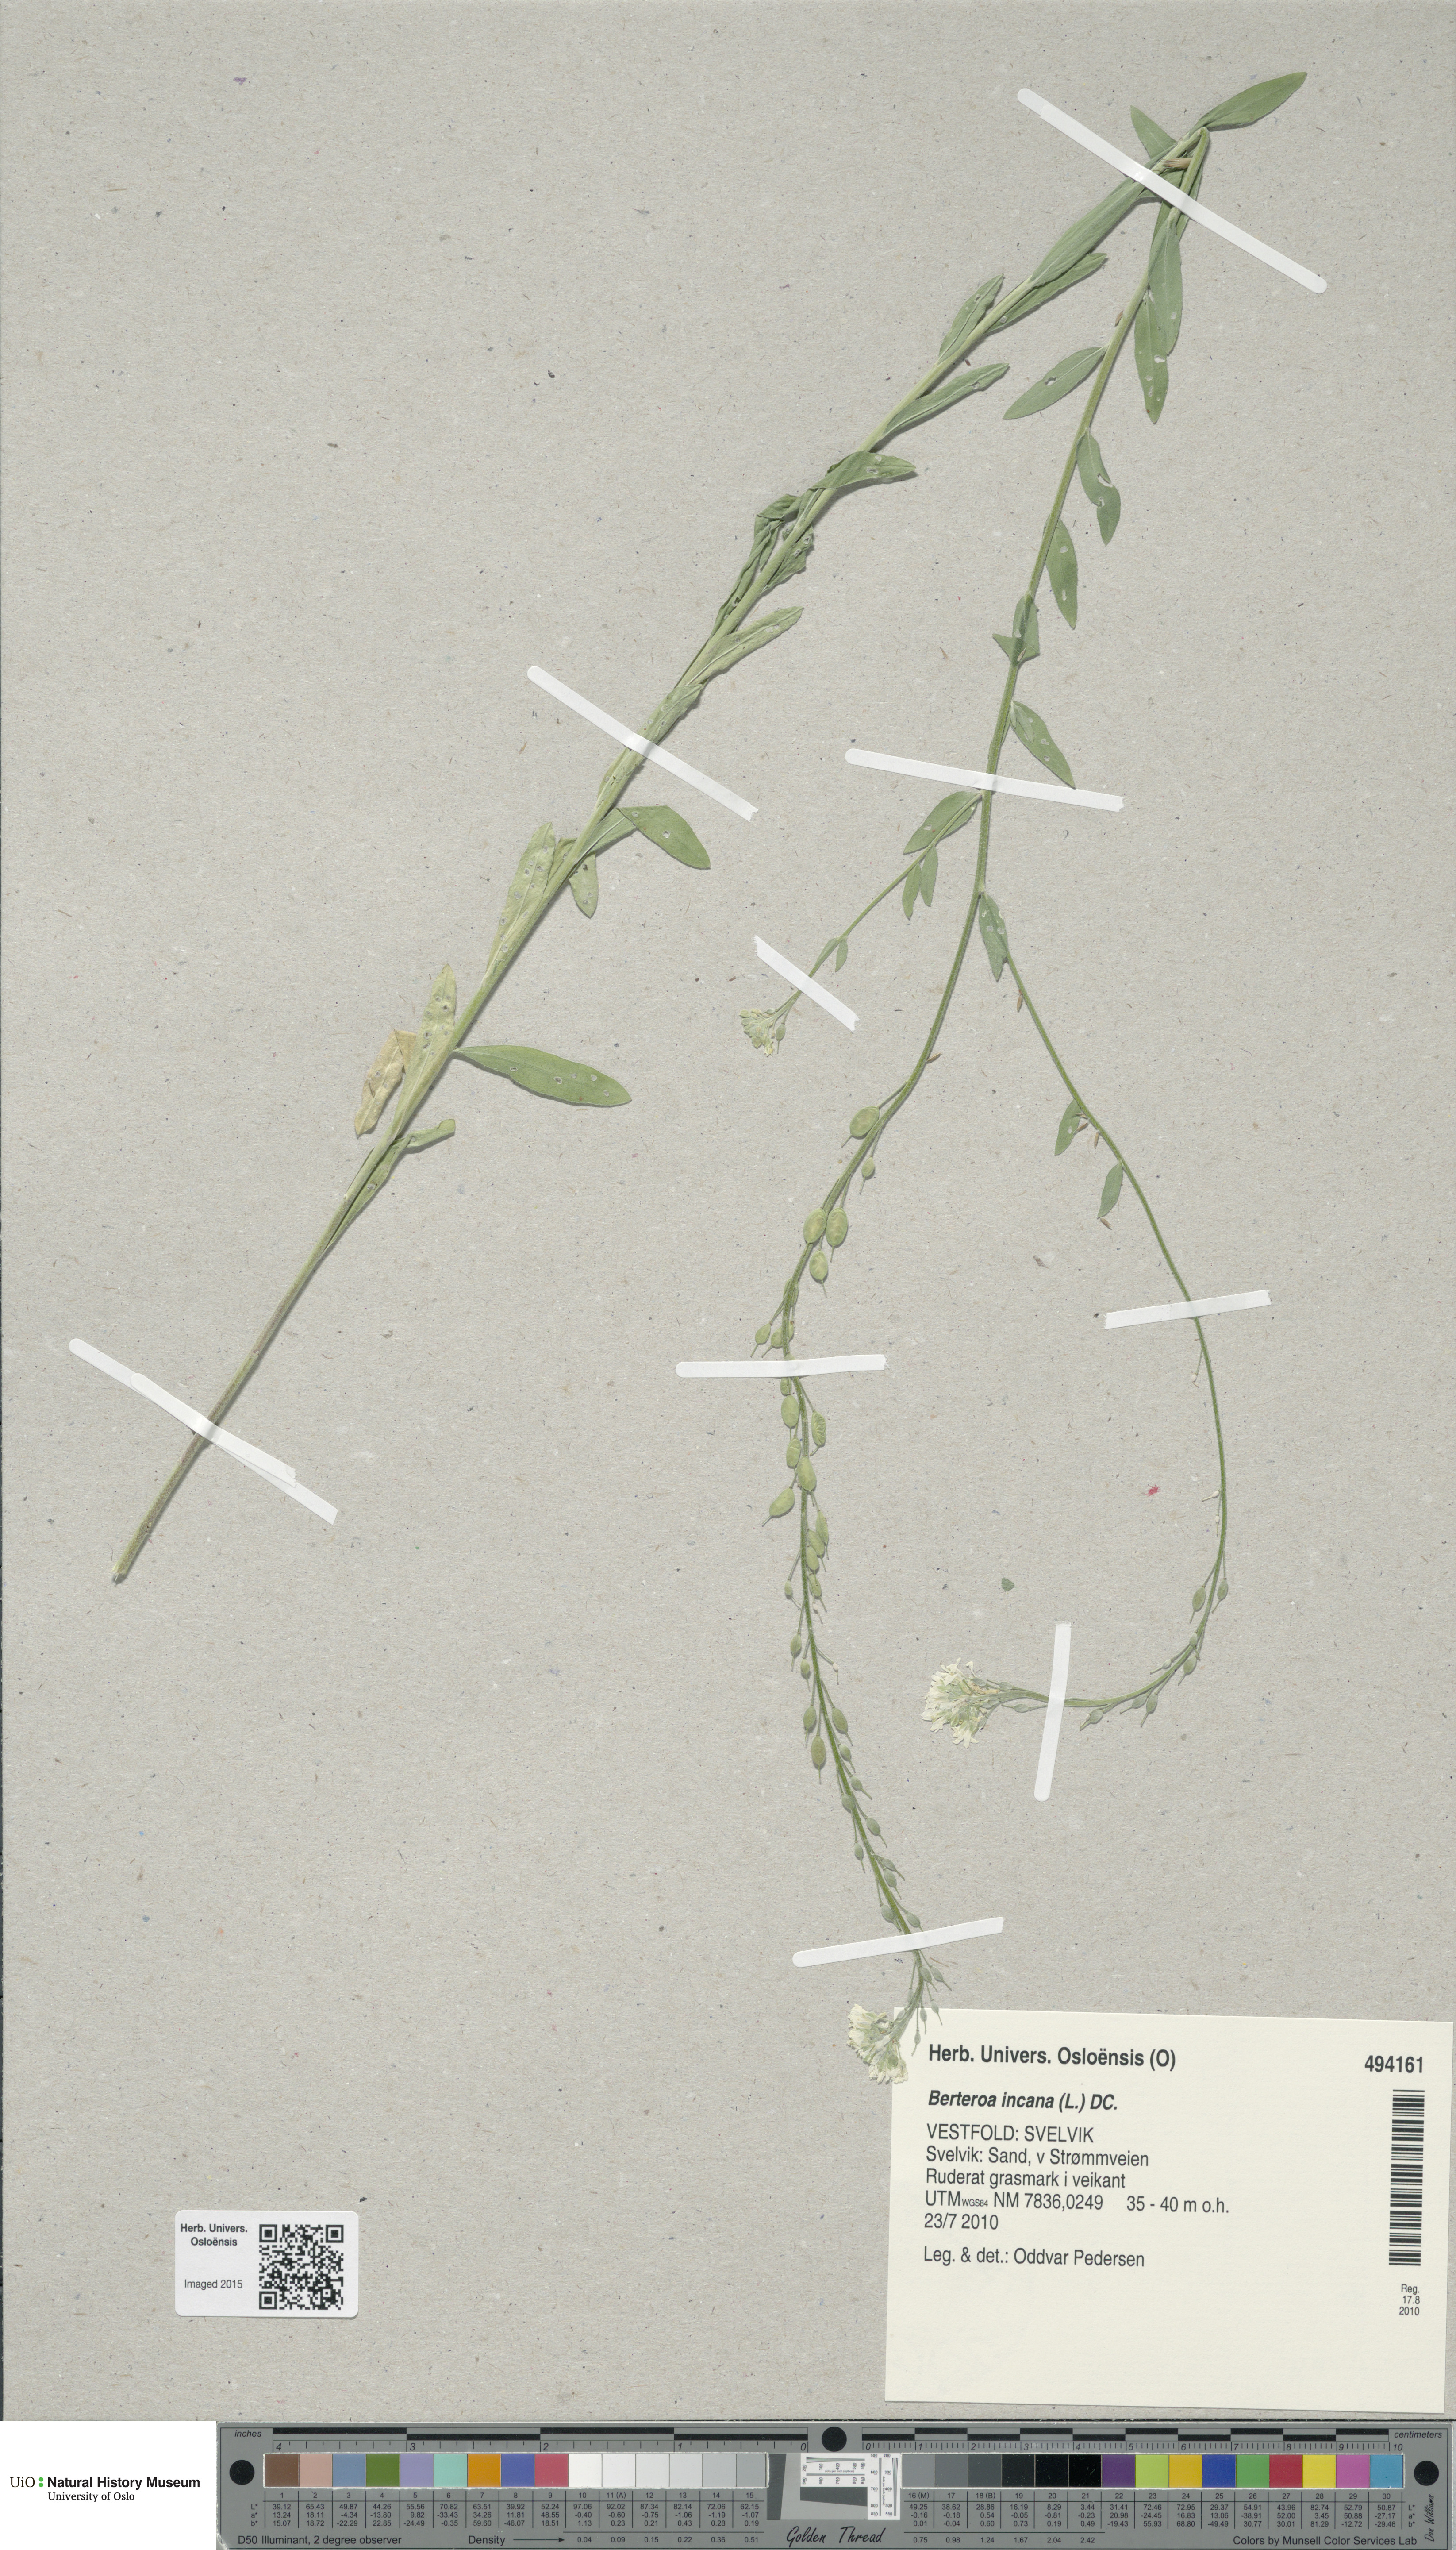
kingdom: Plantae
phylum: Tracheophyta
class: Magnoliopsida
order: Brassicales
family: Brassicaceae
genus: Berteroa
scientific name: Berteroa incana
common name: Hoary alison
